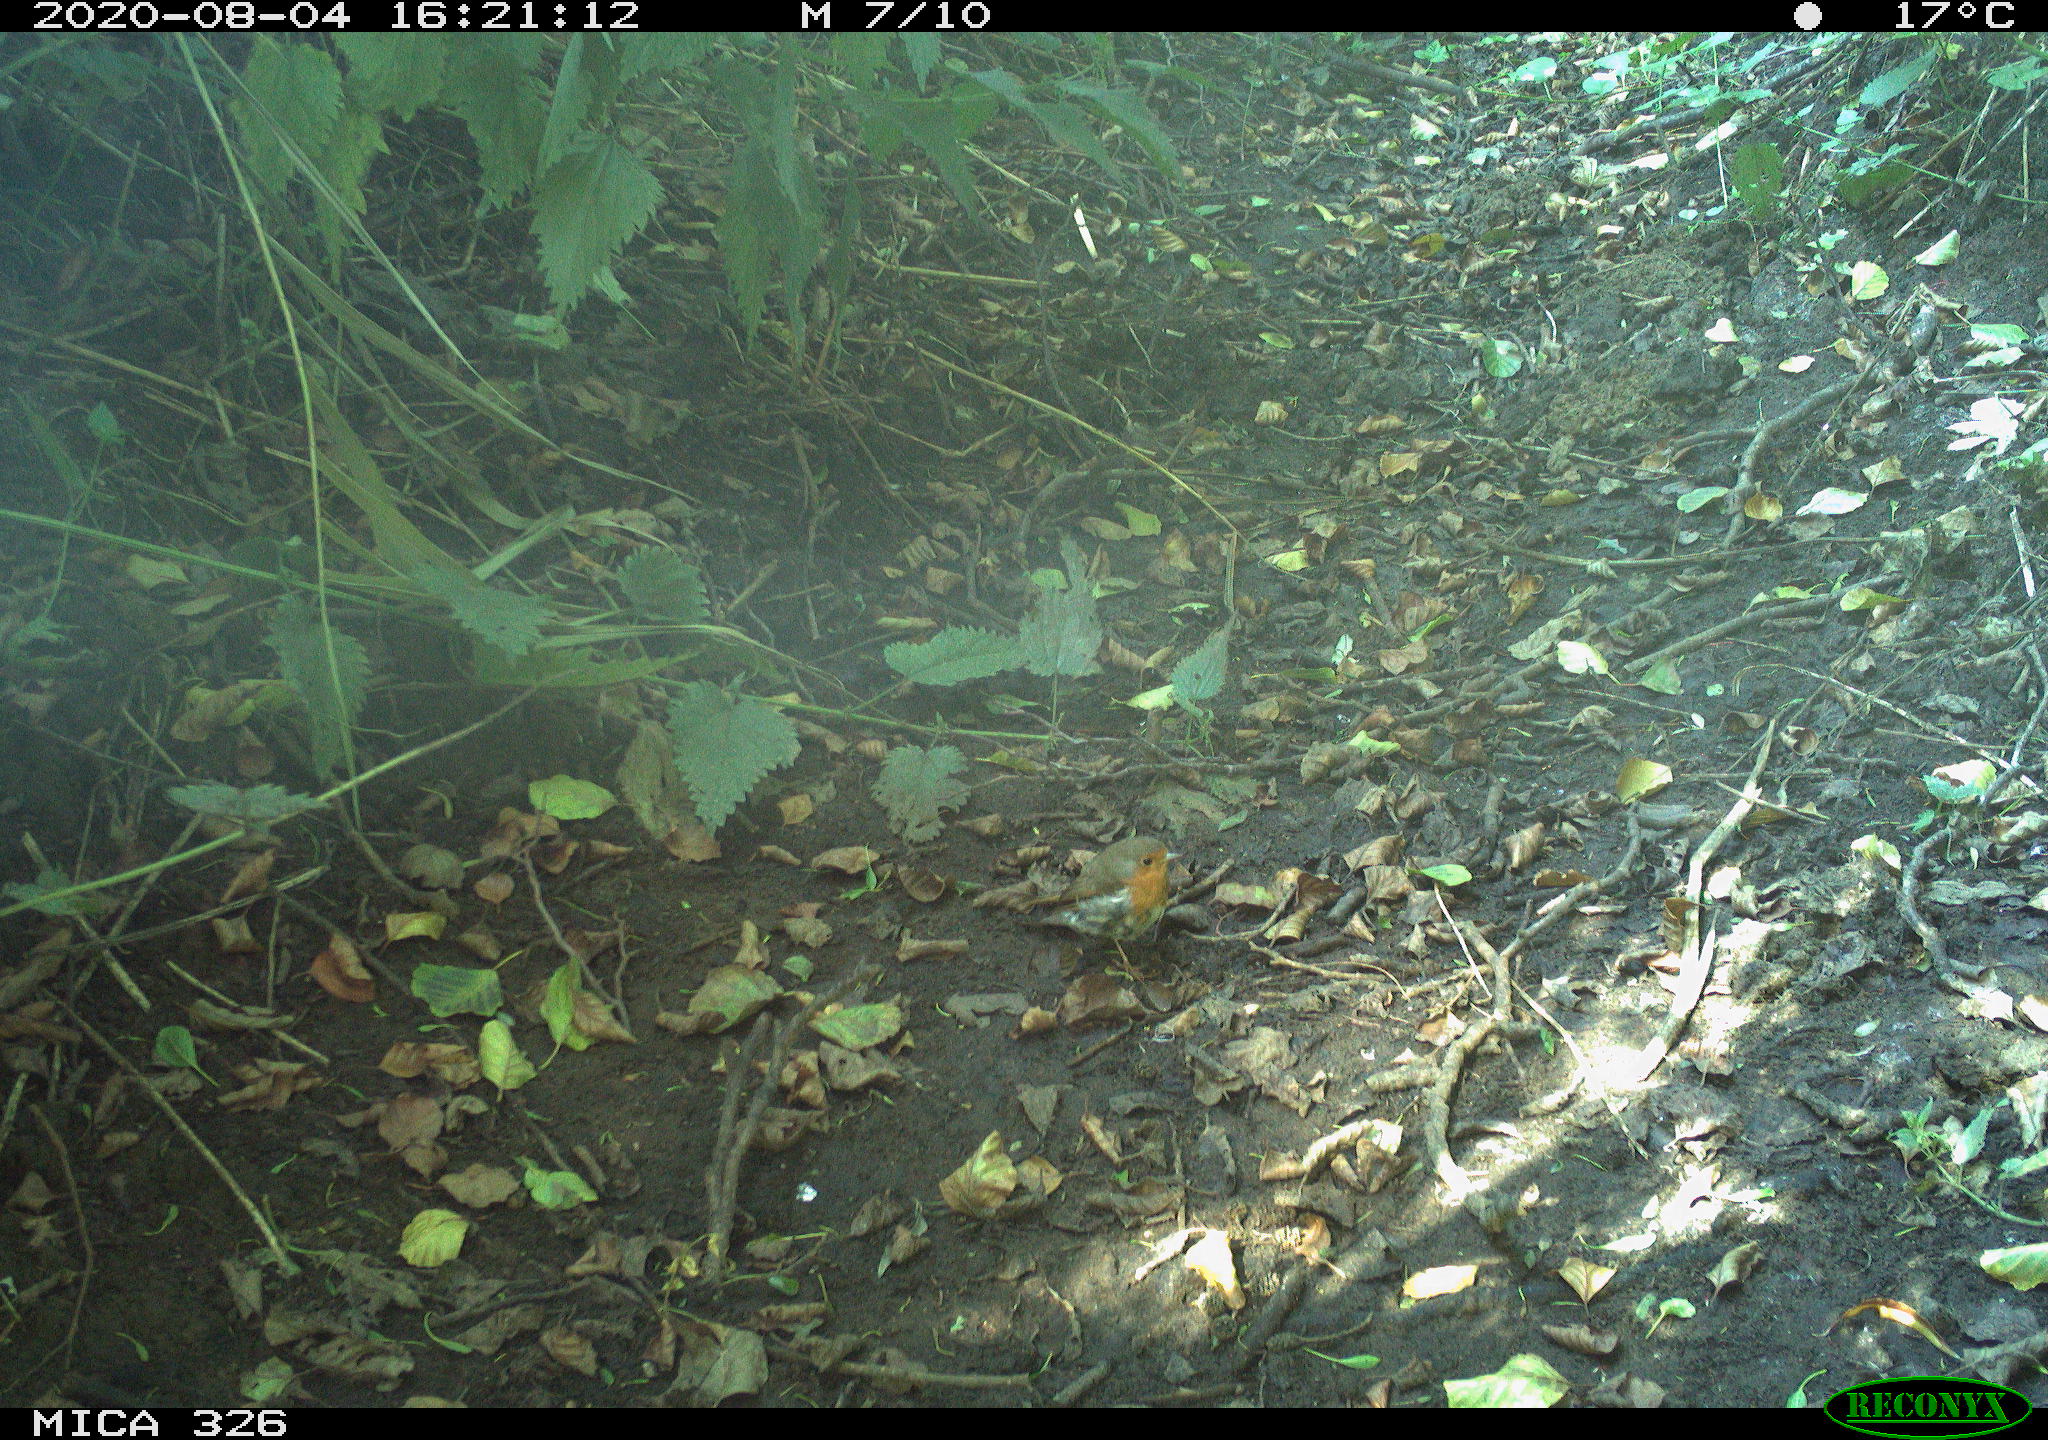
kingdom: Animalia
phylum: Chordata
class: Aves
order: Passeriformes
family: Muscicapidae
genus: Erithacus
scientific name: Erithacus rubecula
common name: European robin
